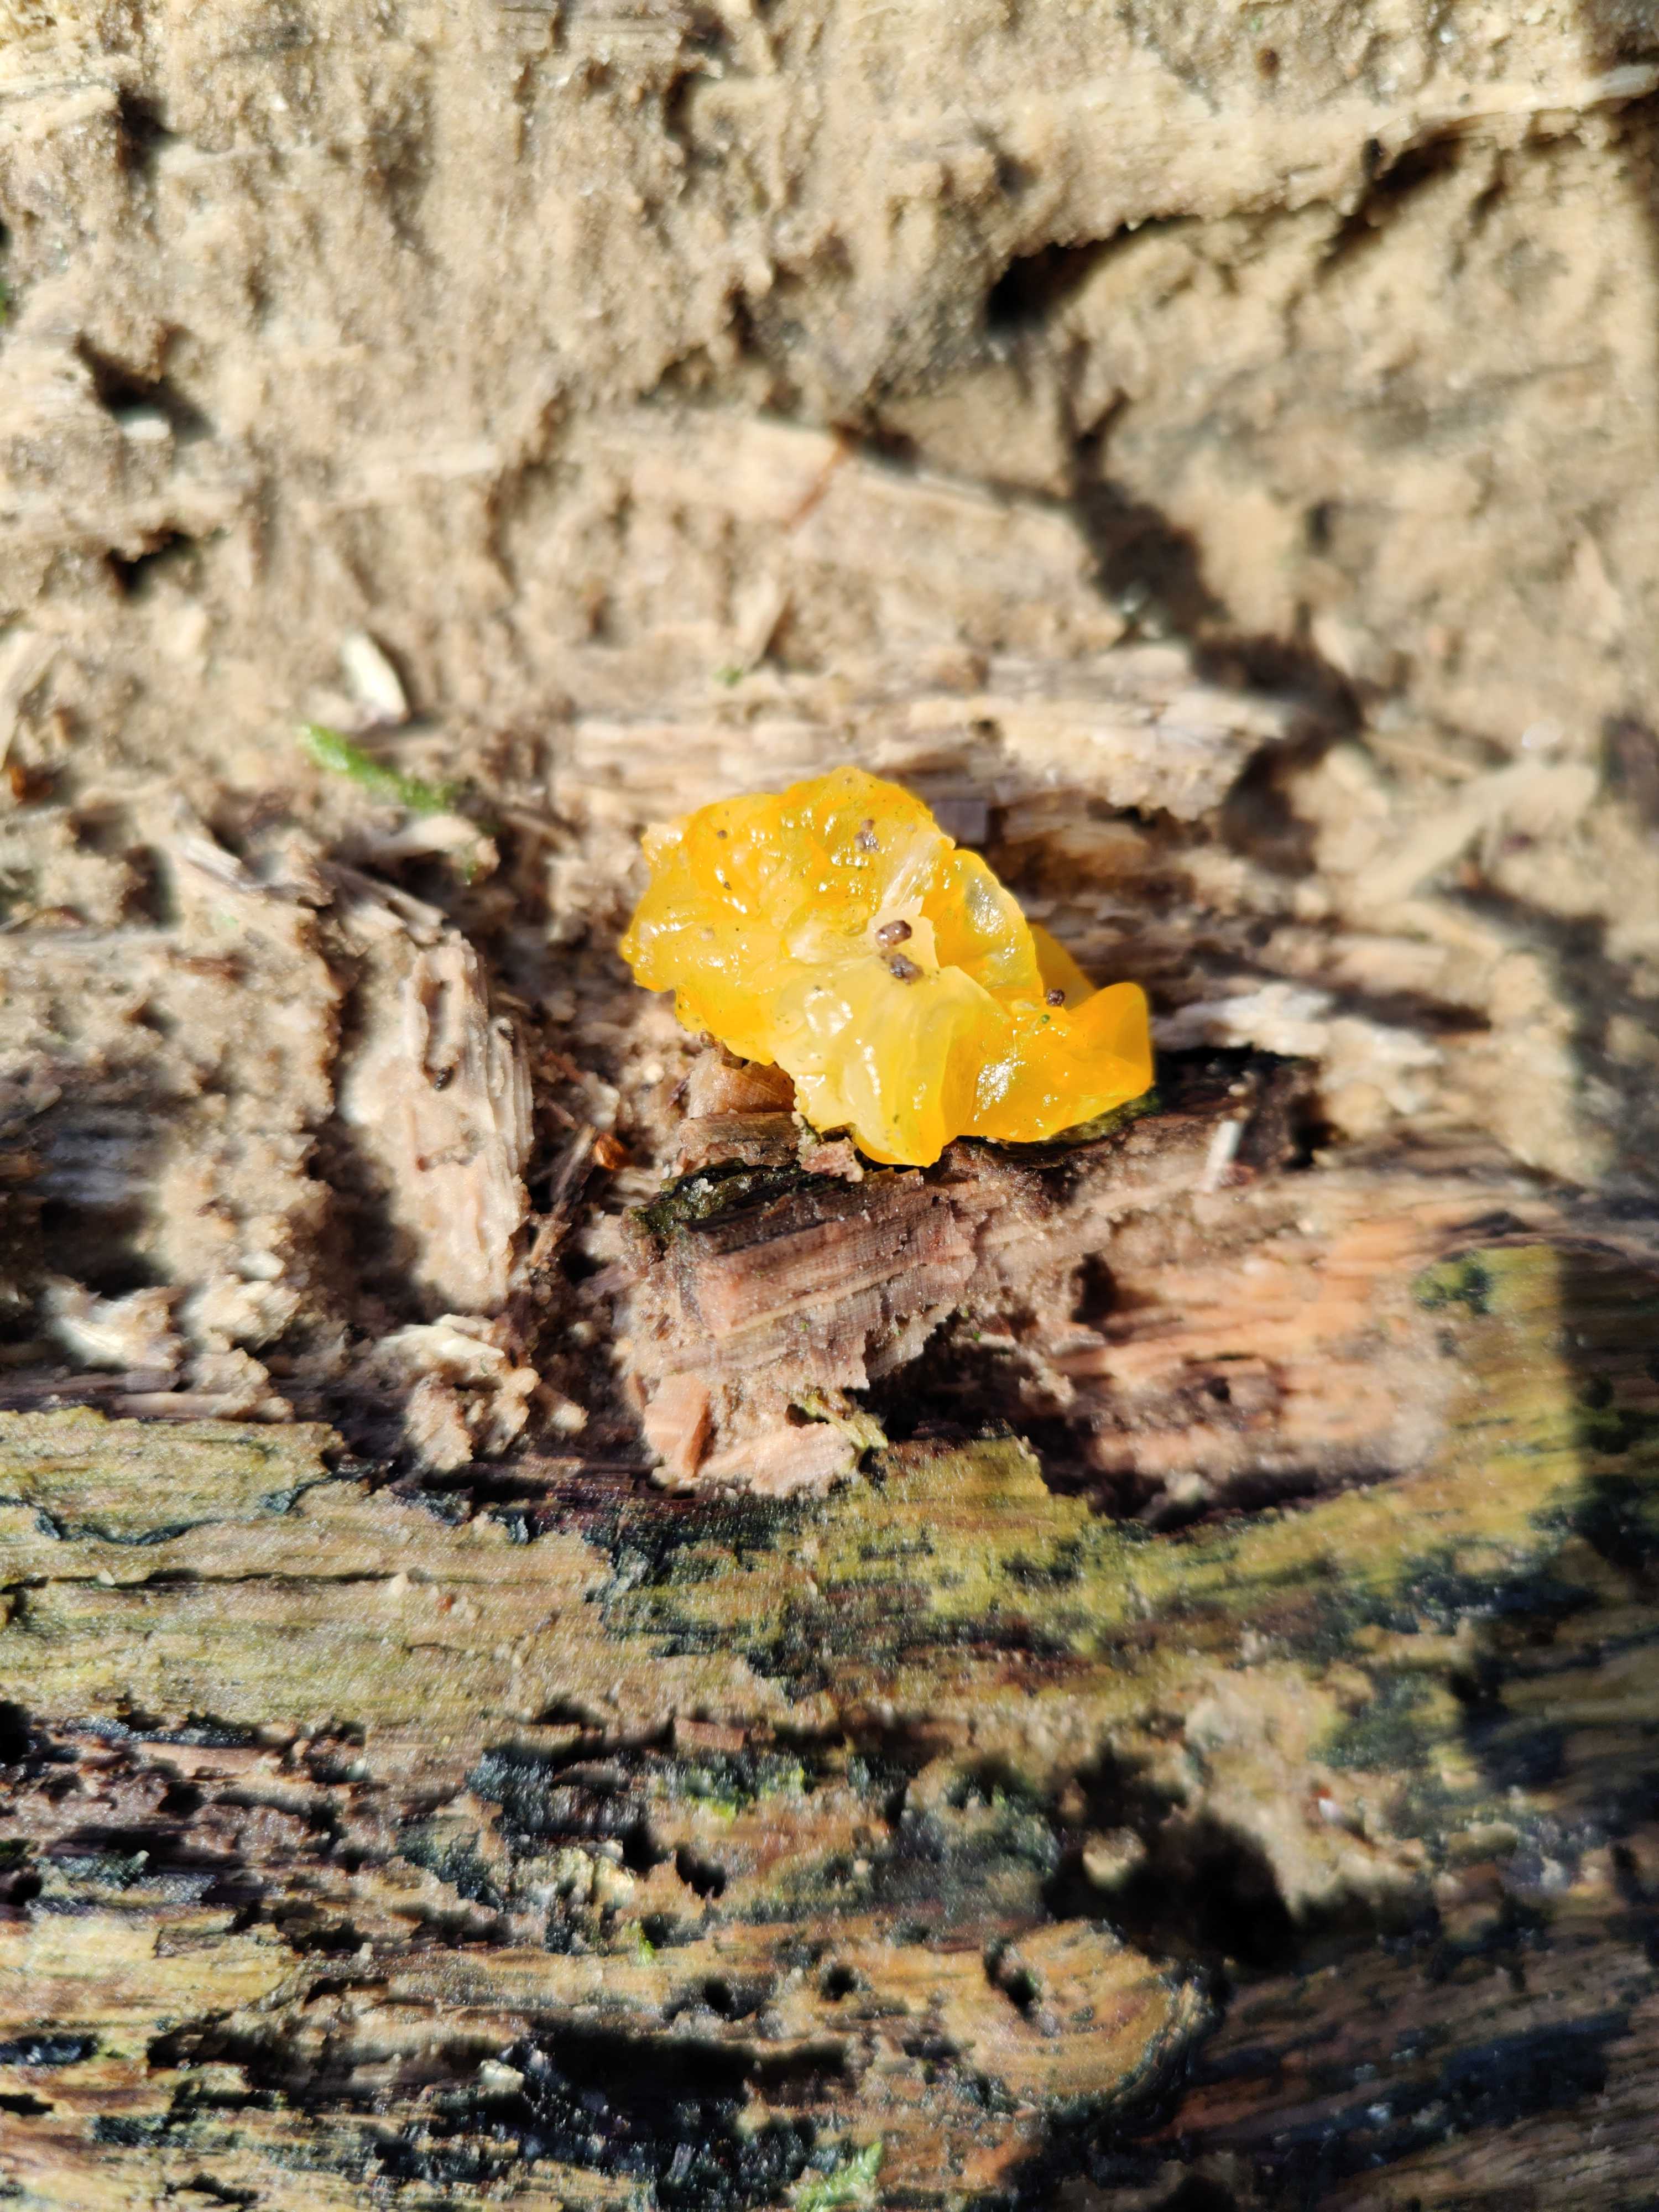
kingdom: Fungi
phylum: Basidiomycota
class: Tremellomycetes
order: Tremellales
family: Tremellaceae
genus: Tremella
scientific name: Tremella mesenterica
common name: gul bævresvamp
